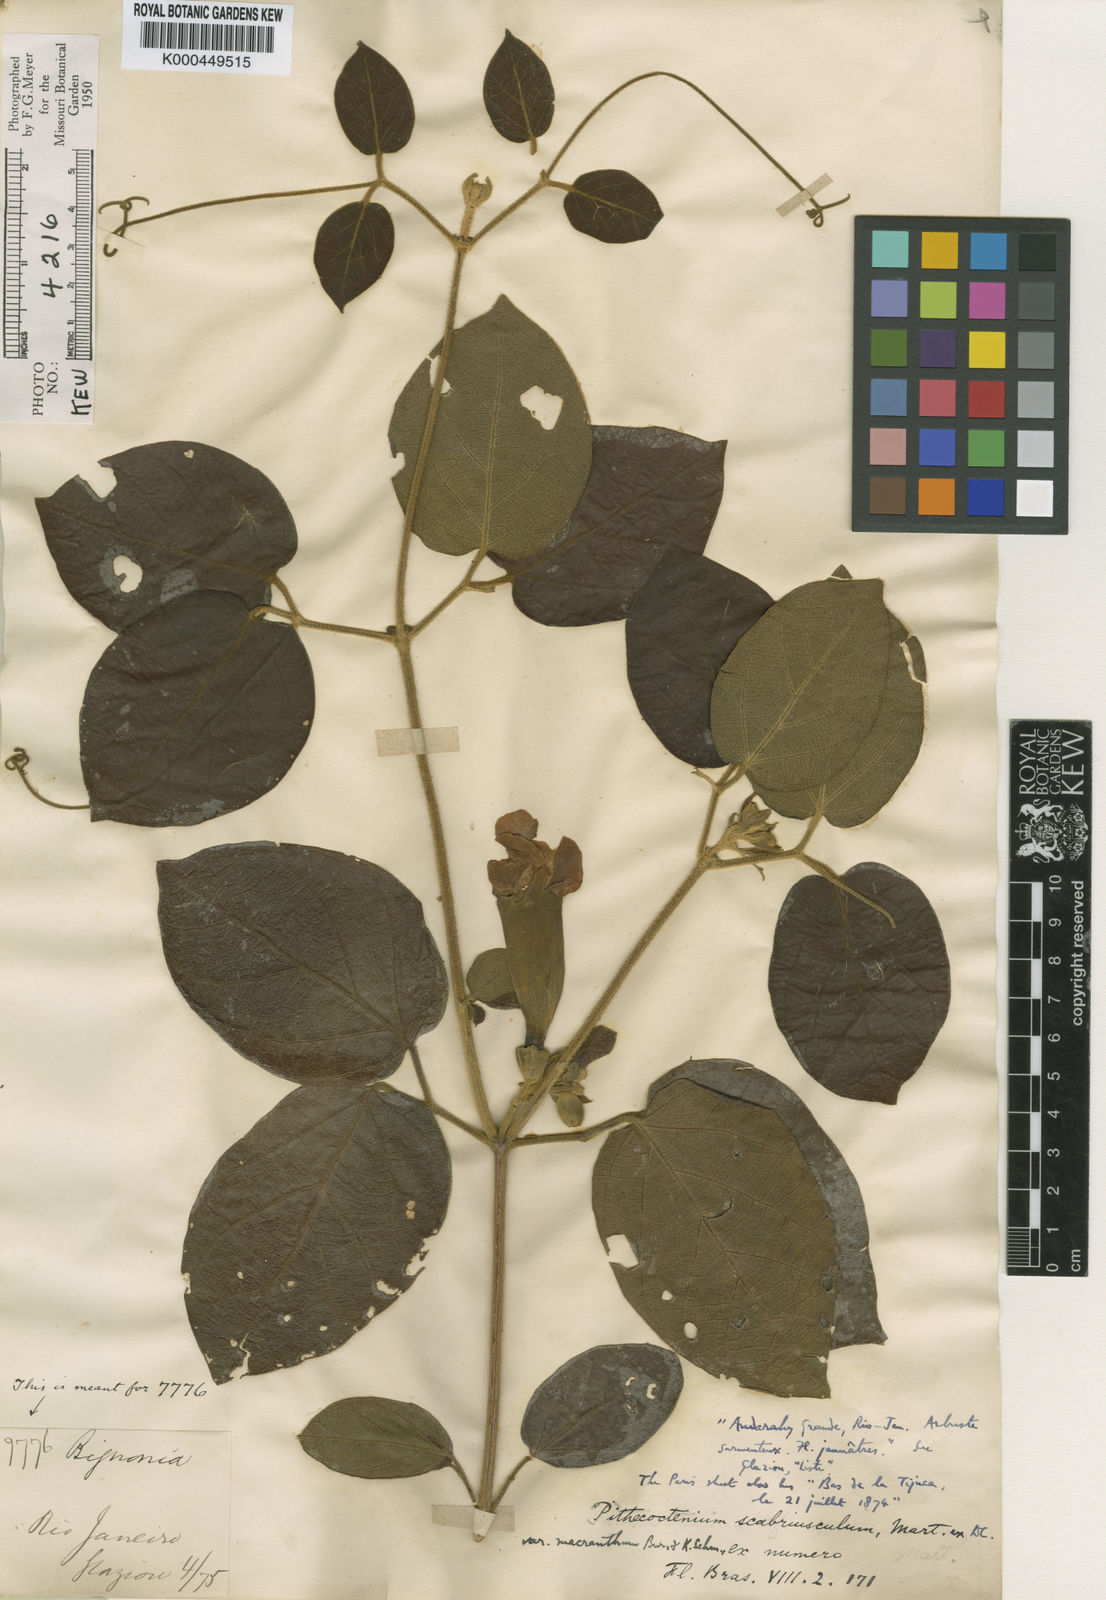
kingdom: Plantae
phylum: Tracheophyta
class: Magnoliopsida
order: Lamiales
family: Bignoniaceae
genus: Amphilophium
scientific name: Amphilophium scabriusculum
